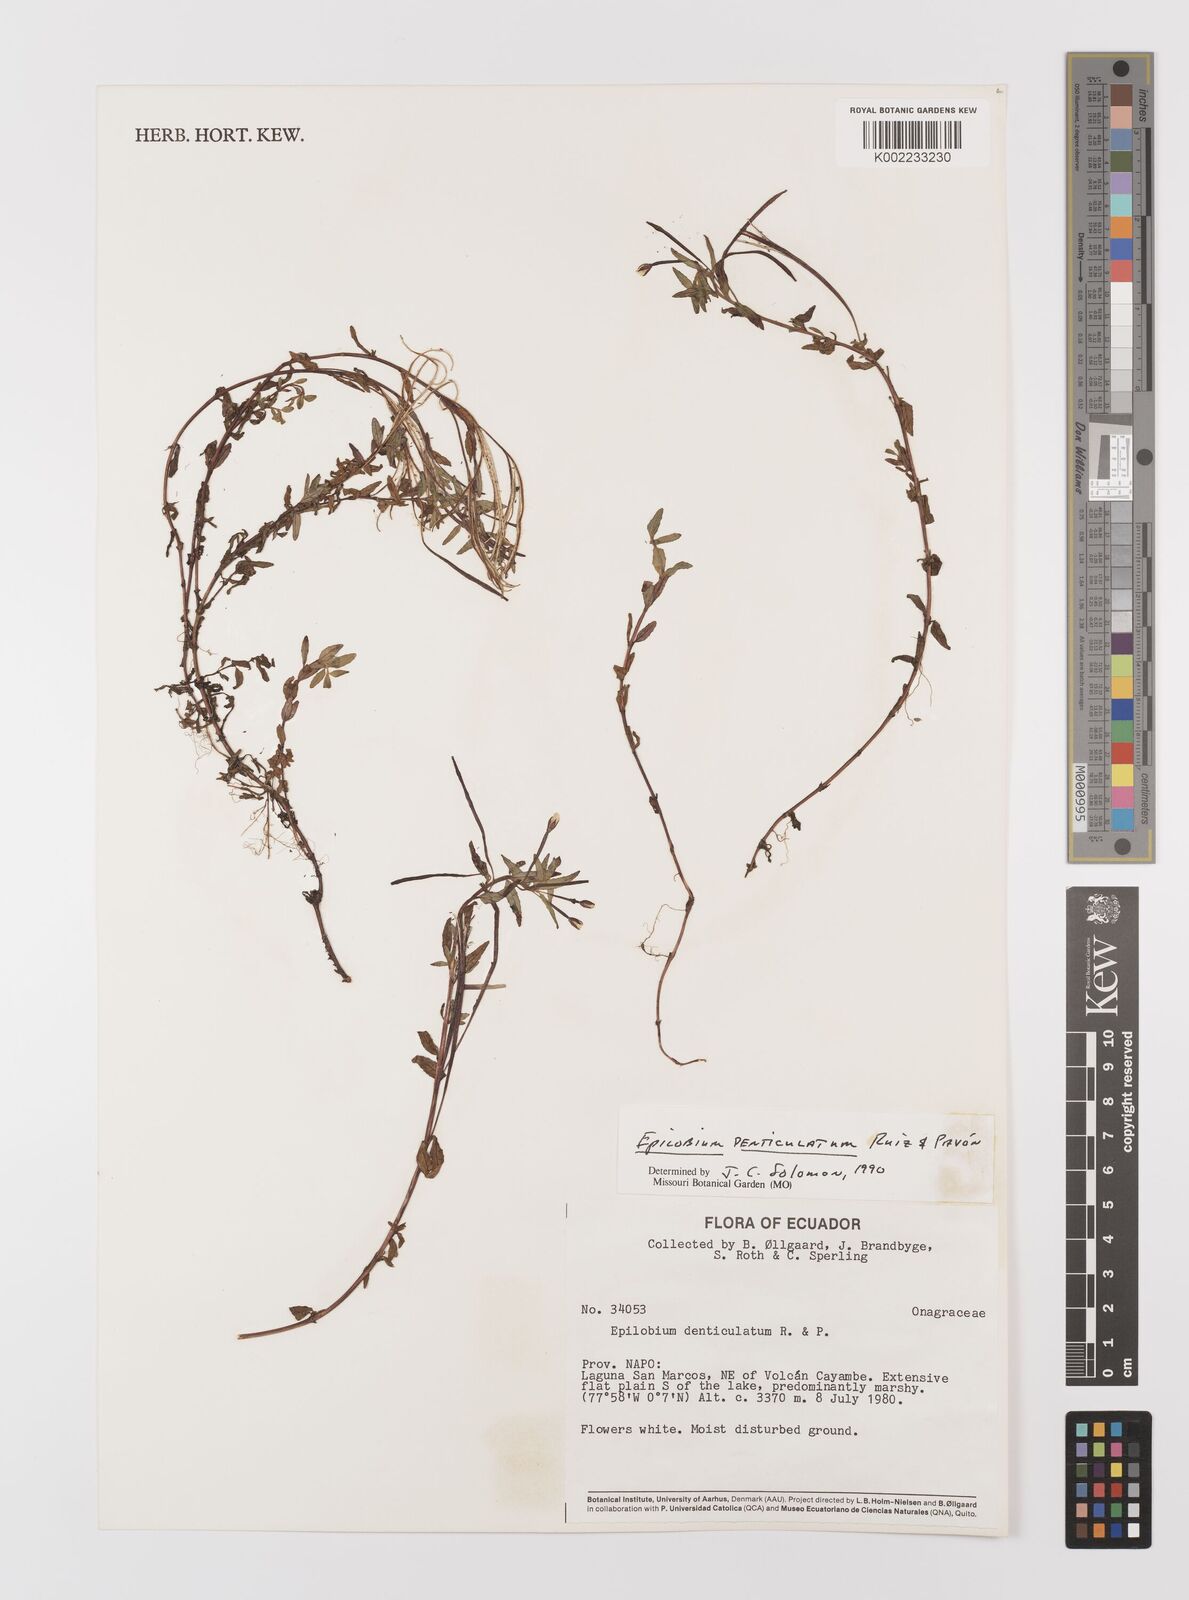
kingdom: Plantae
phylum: Tracheophyta
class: Magnoliopsida
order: Myrtales
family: Onagraceae
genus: Epilobium
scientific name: Epilobium denticulatum
